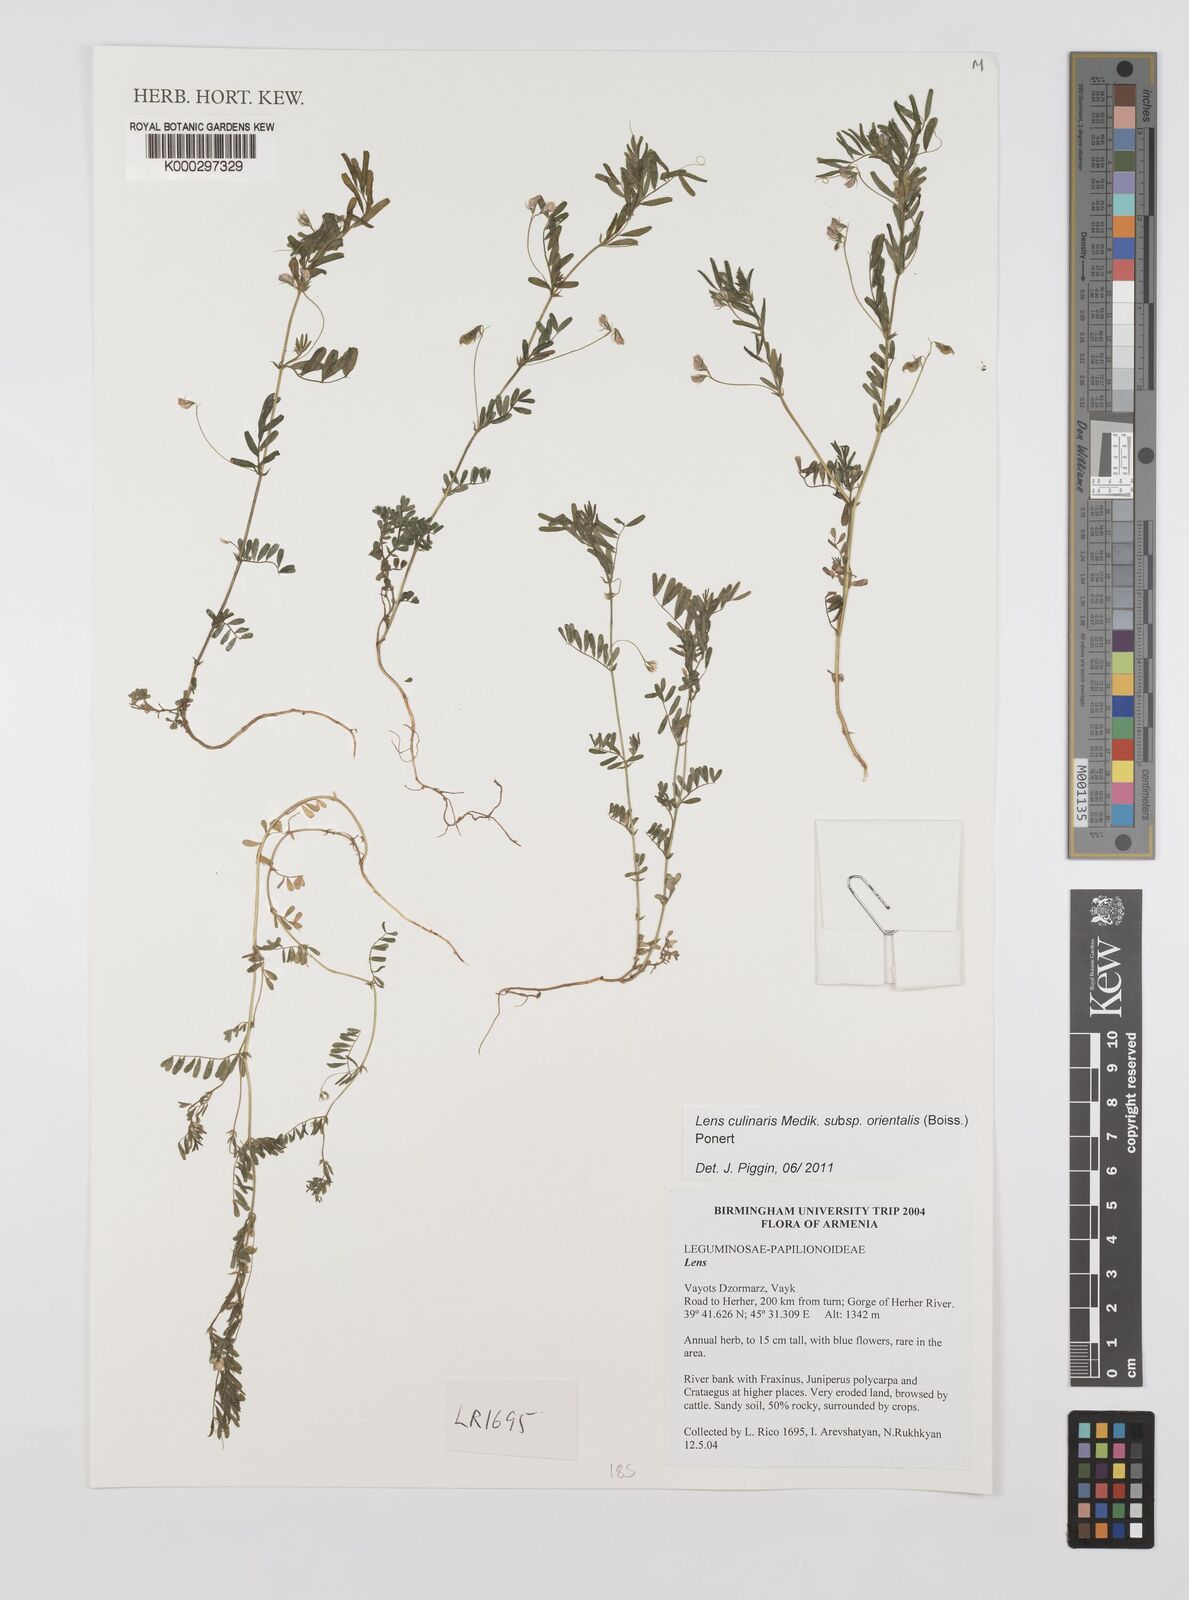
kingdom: Plantae
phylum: Tracheophyta
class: Magnoliopsida
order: Fabales
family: Fabaceae
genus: Lens
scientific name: Lens
